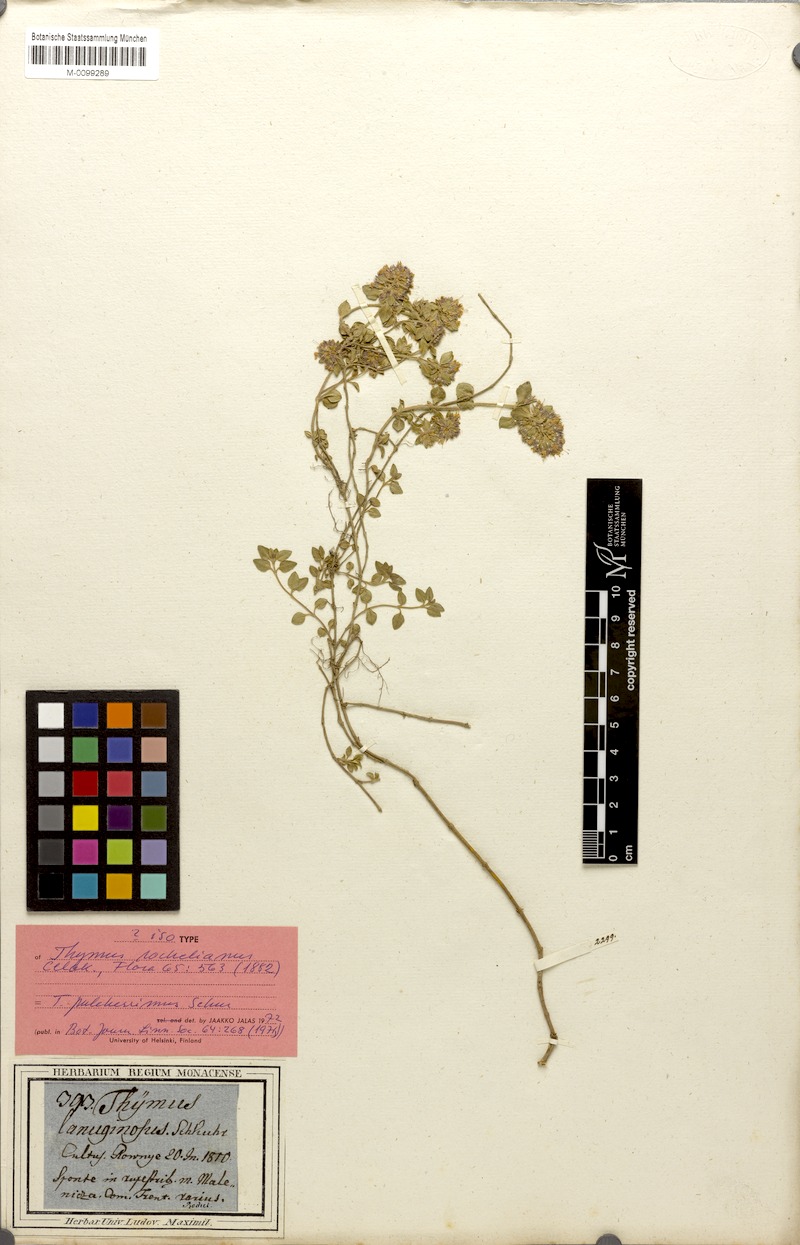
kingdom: Plantae
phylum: Tracheophyta
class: Magnoliopsida
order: Lamiales
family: Lamiaceae
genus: Thymus
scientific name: Thymus pulcherrimus
